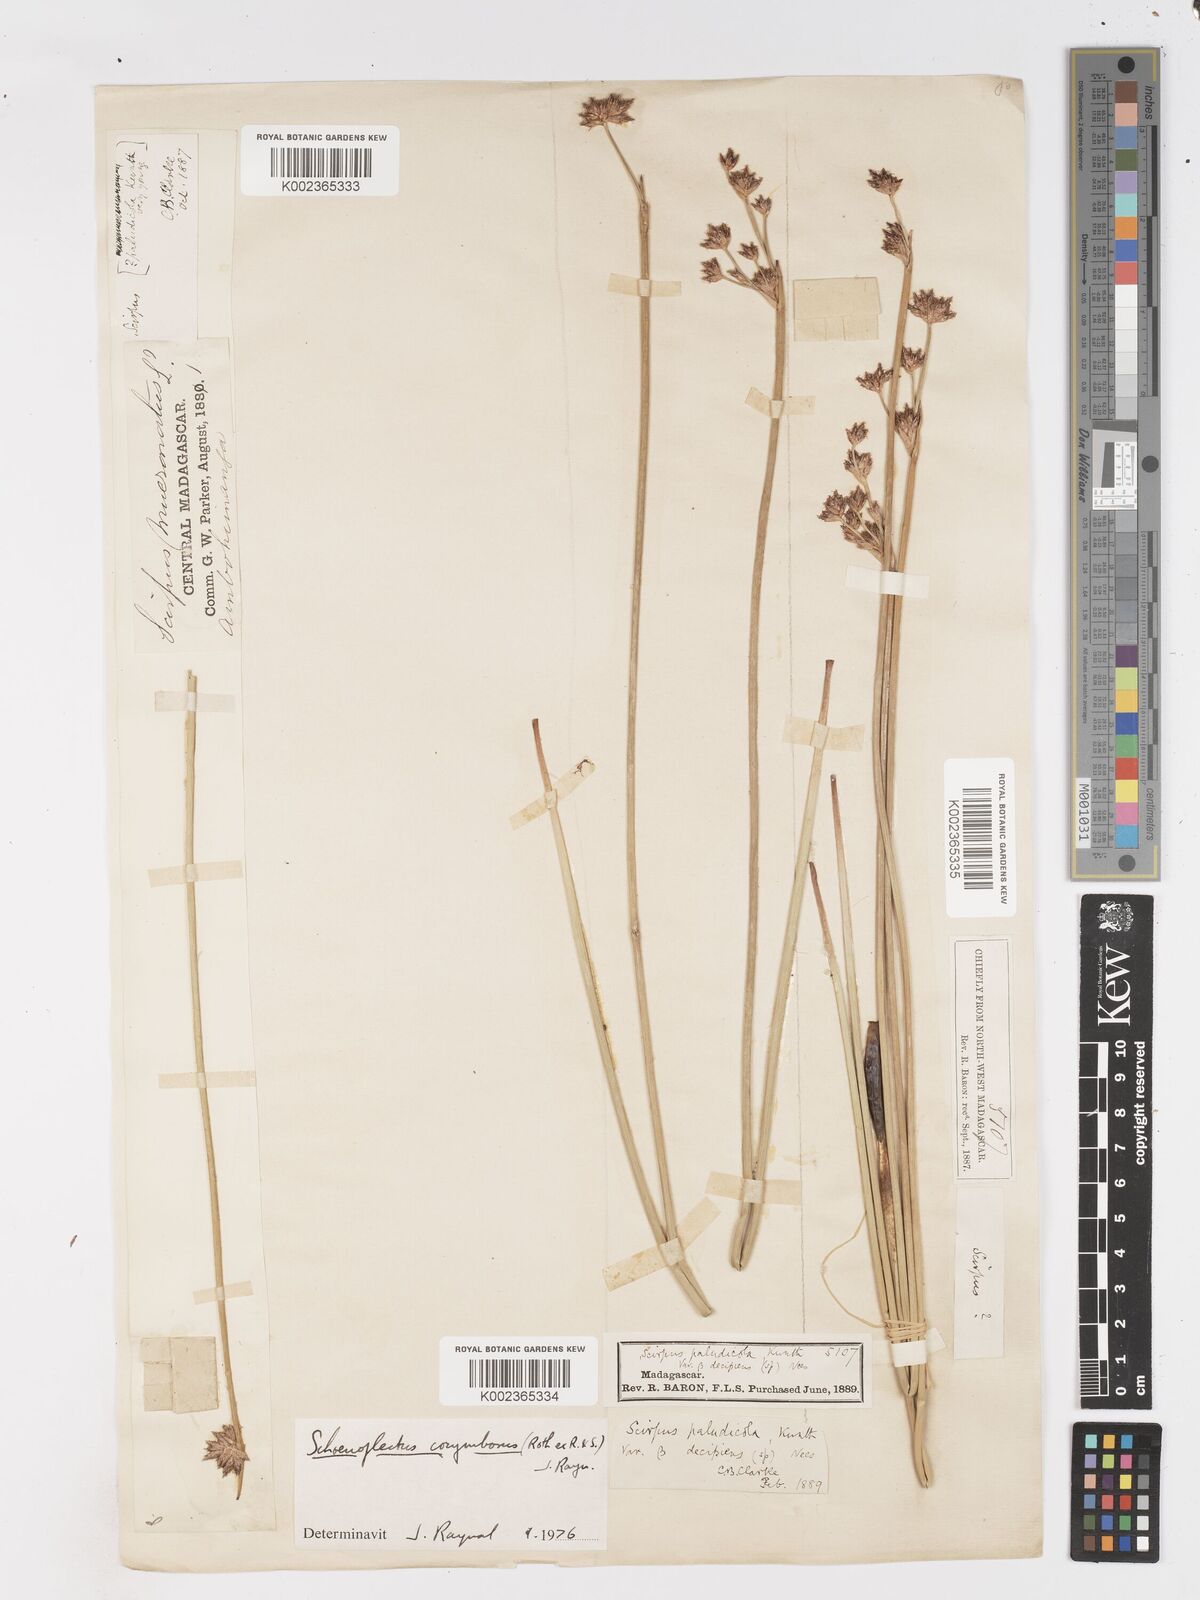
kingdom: Plantae
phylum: Tracheophyta
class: Liliopsida
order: Poales
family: Cyperaceae
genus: Schoenoplectiella
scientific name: Schoenoplectiella corymbosa
